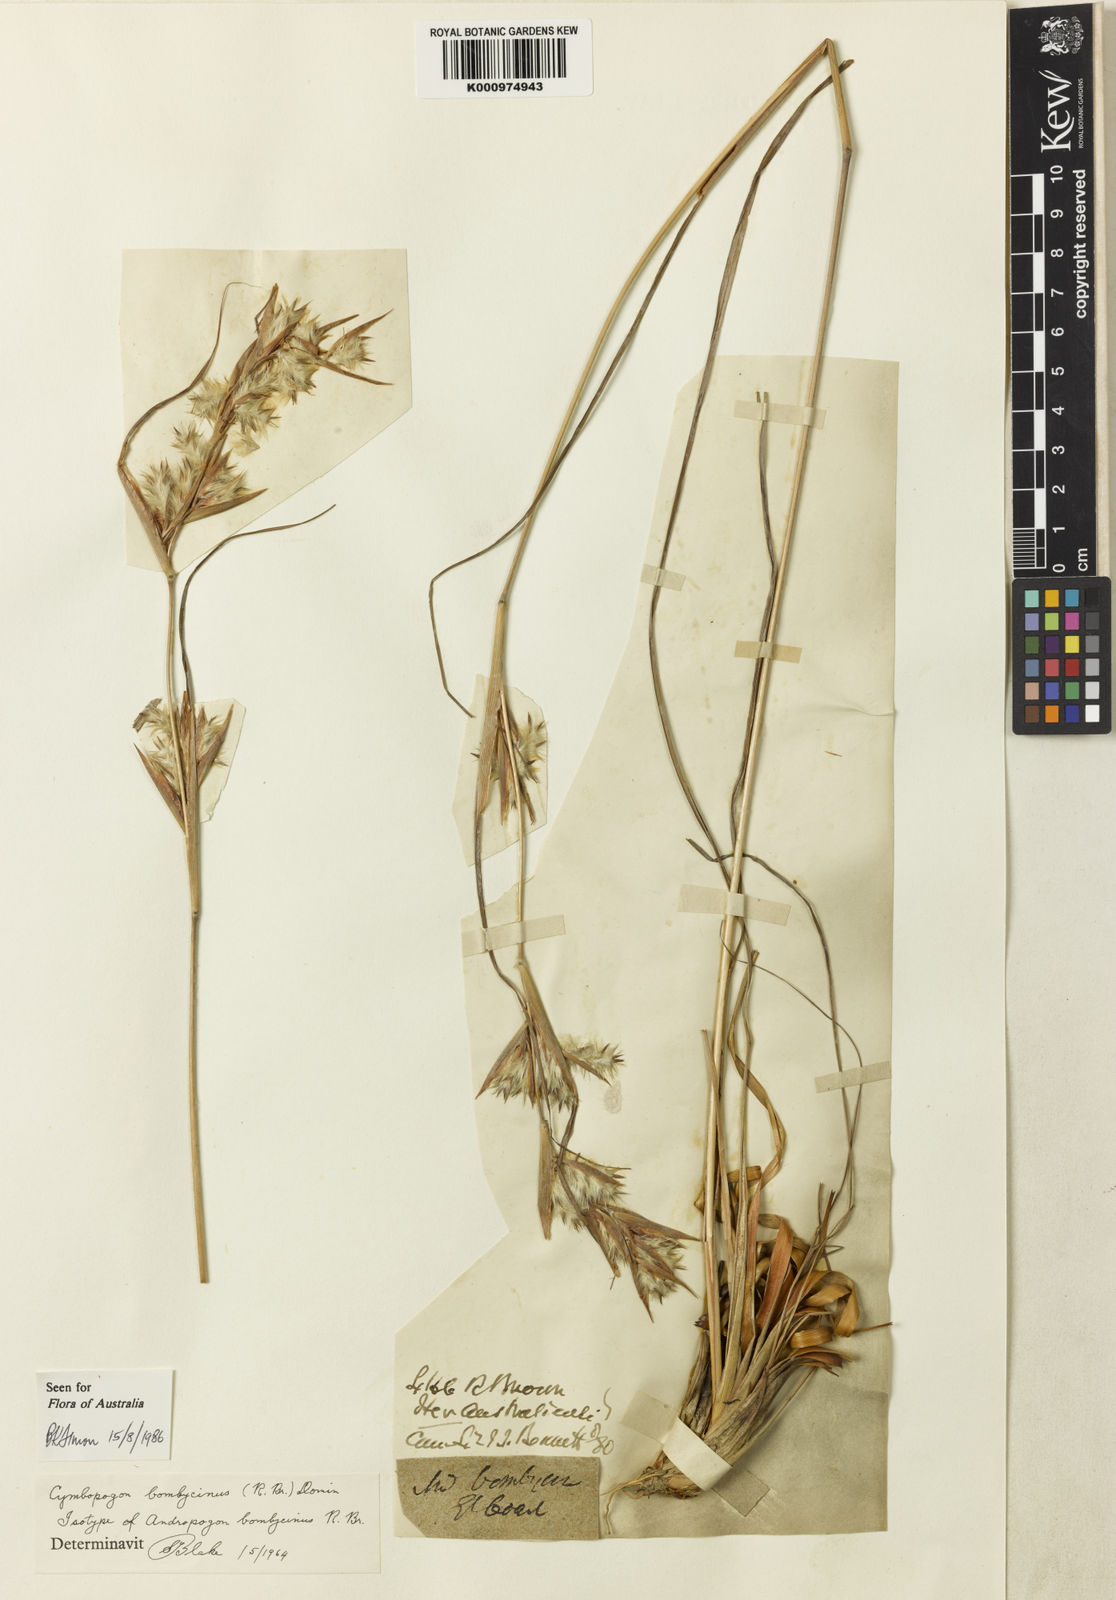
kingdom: Plantae
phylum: Tracheophyta
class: Liliopsida
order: Poales
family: Poaceae
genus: Cymbopogon
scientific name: Cymbopogon bombycinus
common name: Citronella grass
